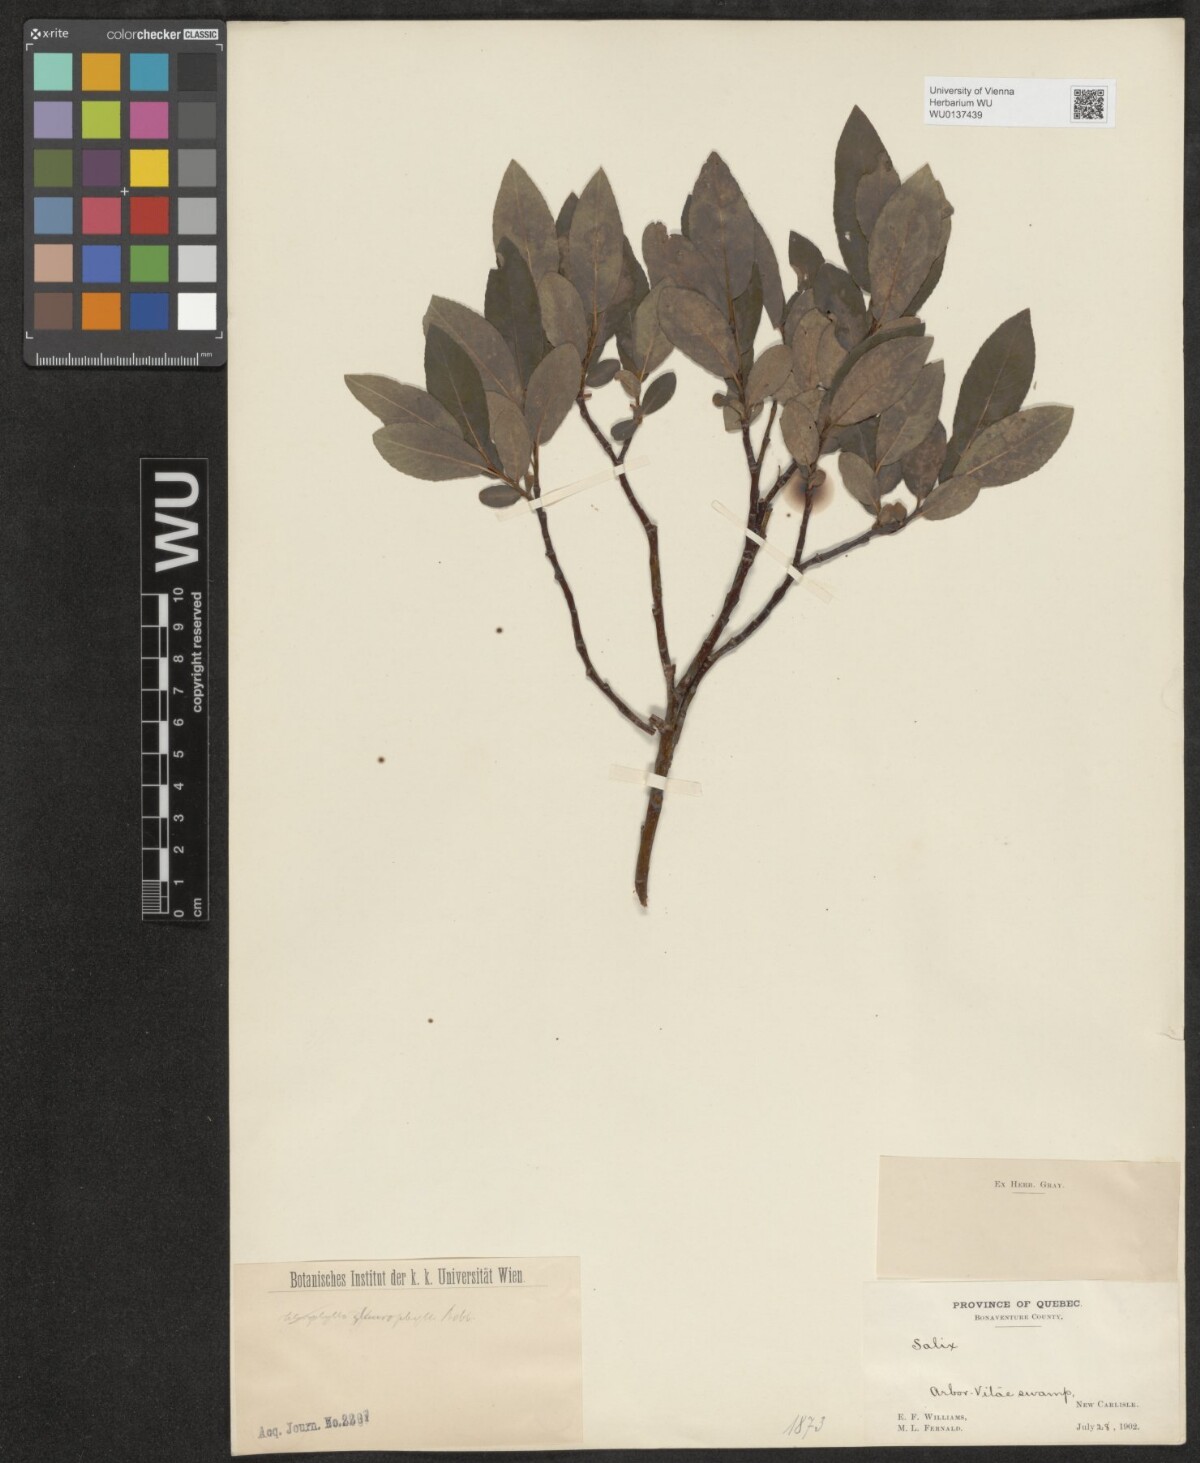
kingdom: Plantae
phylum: Tracheophyta
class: Magnoliopsida
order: Malpighiales
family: Salicaceae
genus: Salix
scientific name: Salix myricoides
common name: Bayberry willow
